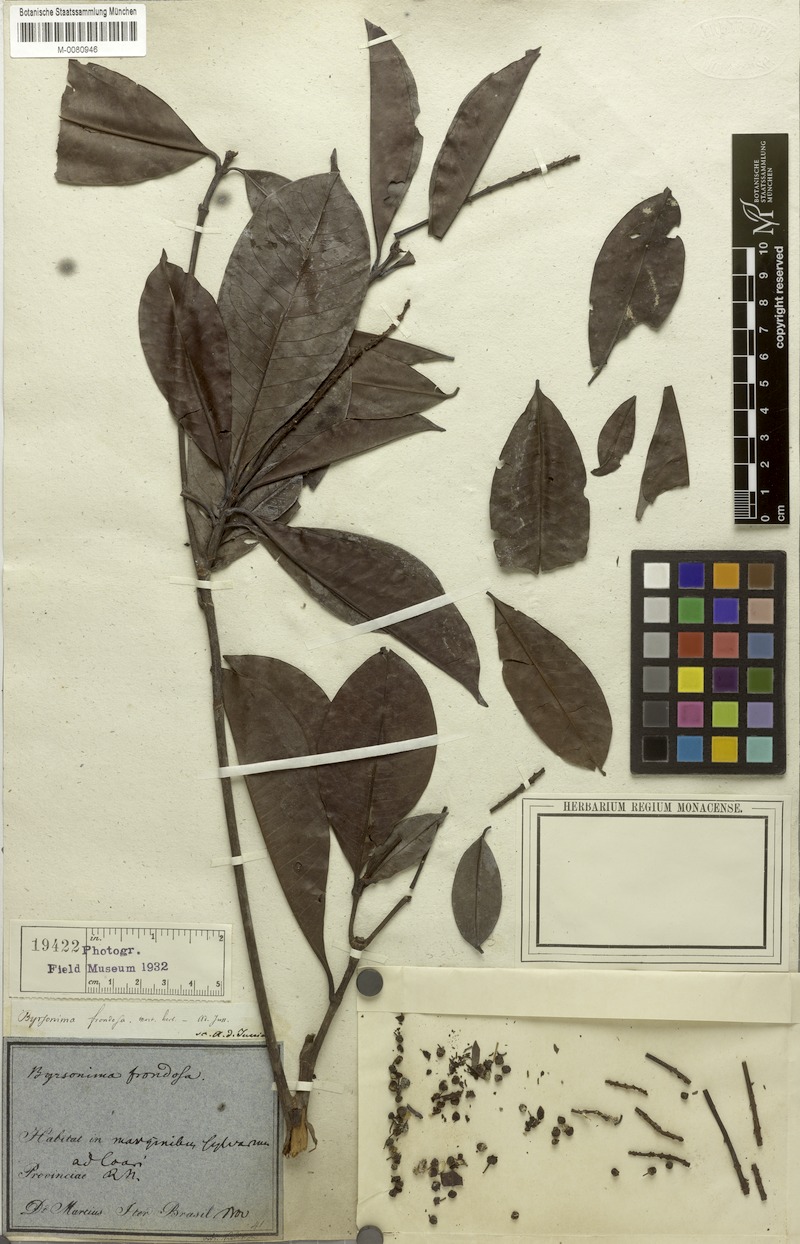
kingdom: Plantae
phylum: Tracheophyta
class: Magnoliopsida
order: Malpighiales
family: Malpighiaceae
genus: Byrsonima
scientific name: Byrsonima frondosa
